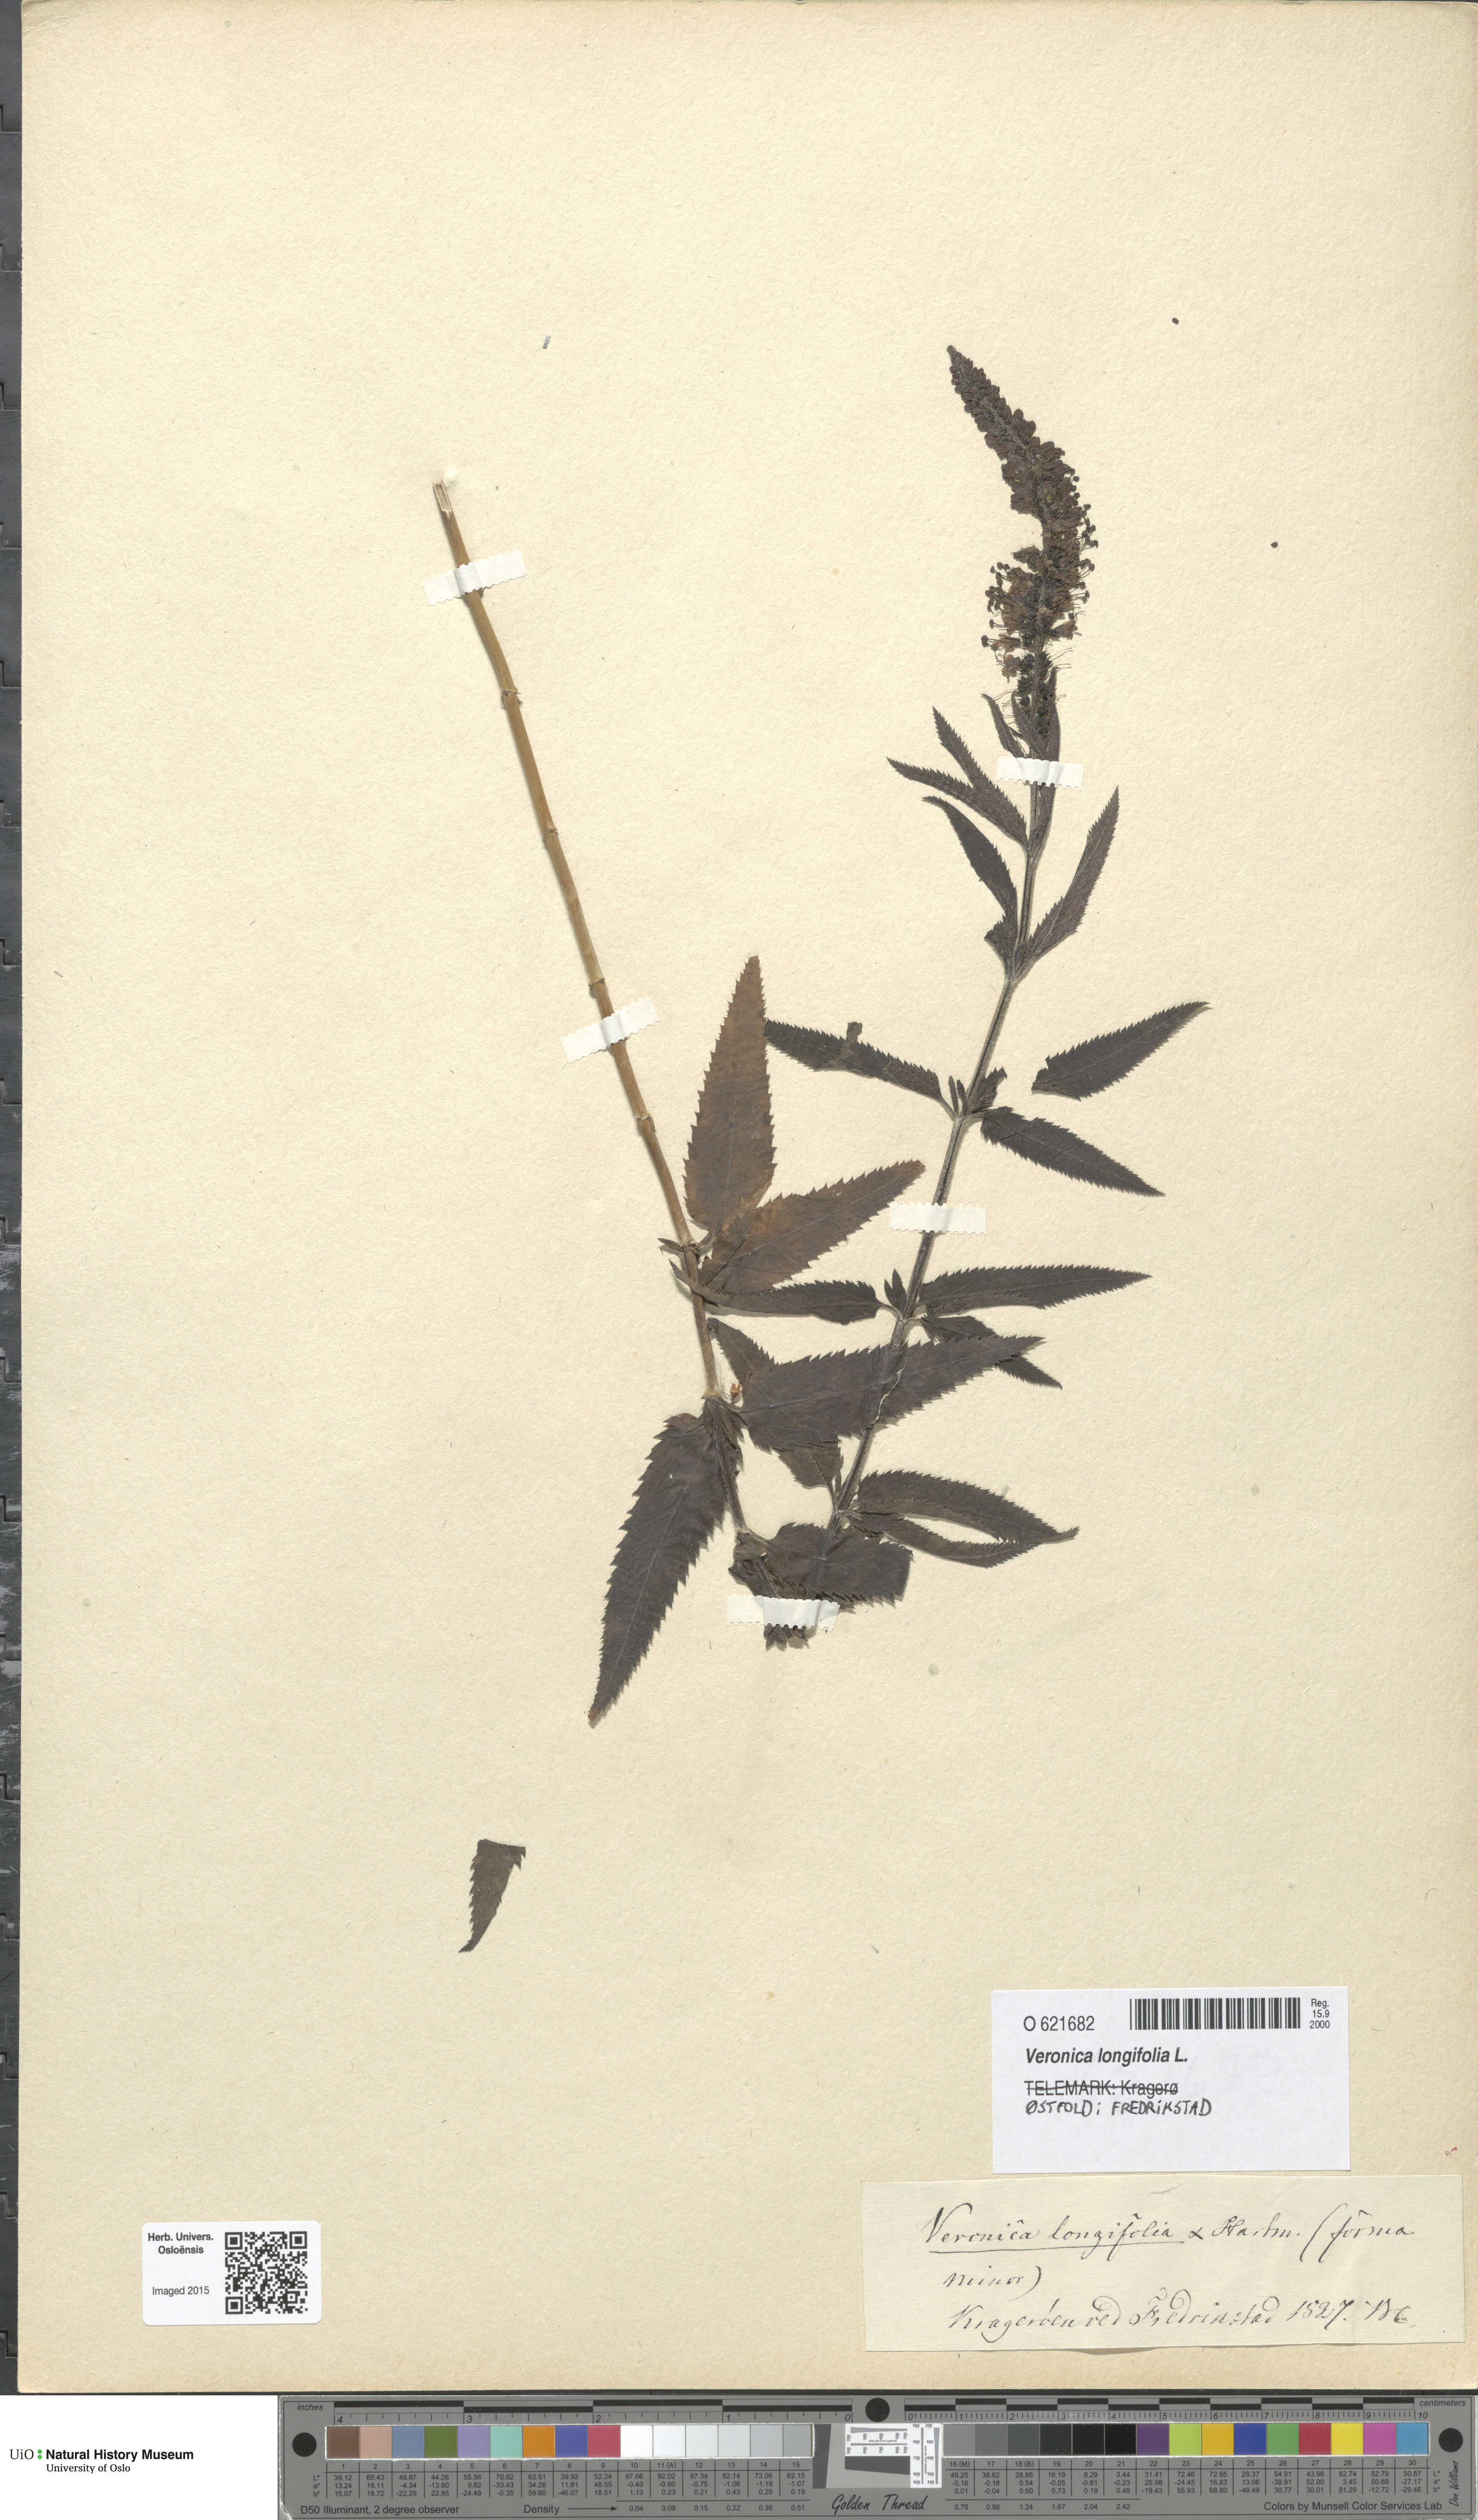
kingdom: Plantae
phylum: Tracheophyta
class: Magnoliopsida
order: Lamiales
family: Plantaginaceae
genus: Veronica
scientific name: Veronica longifolia
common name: Garden speedwell
